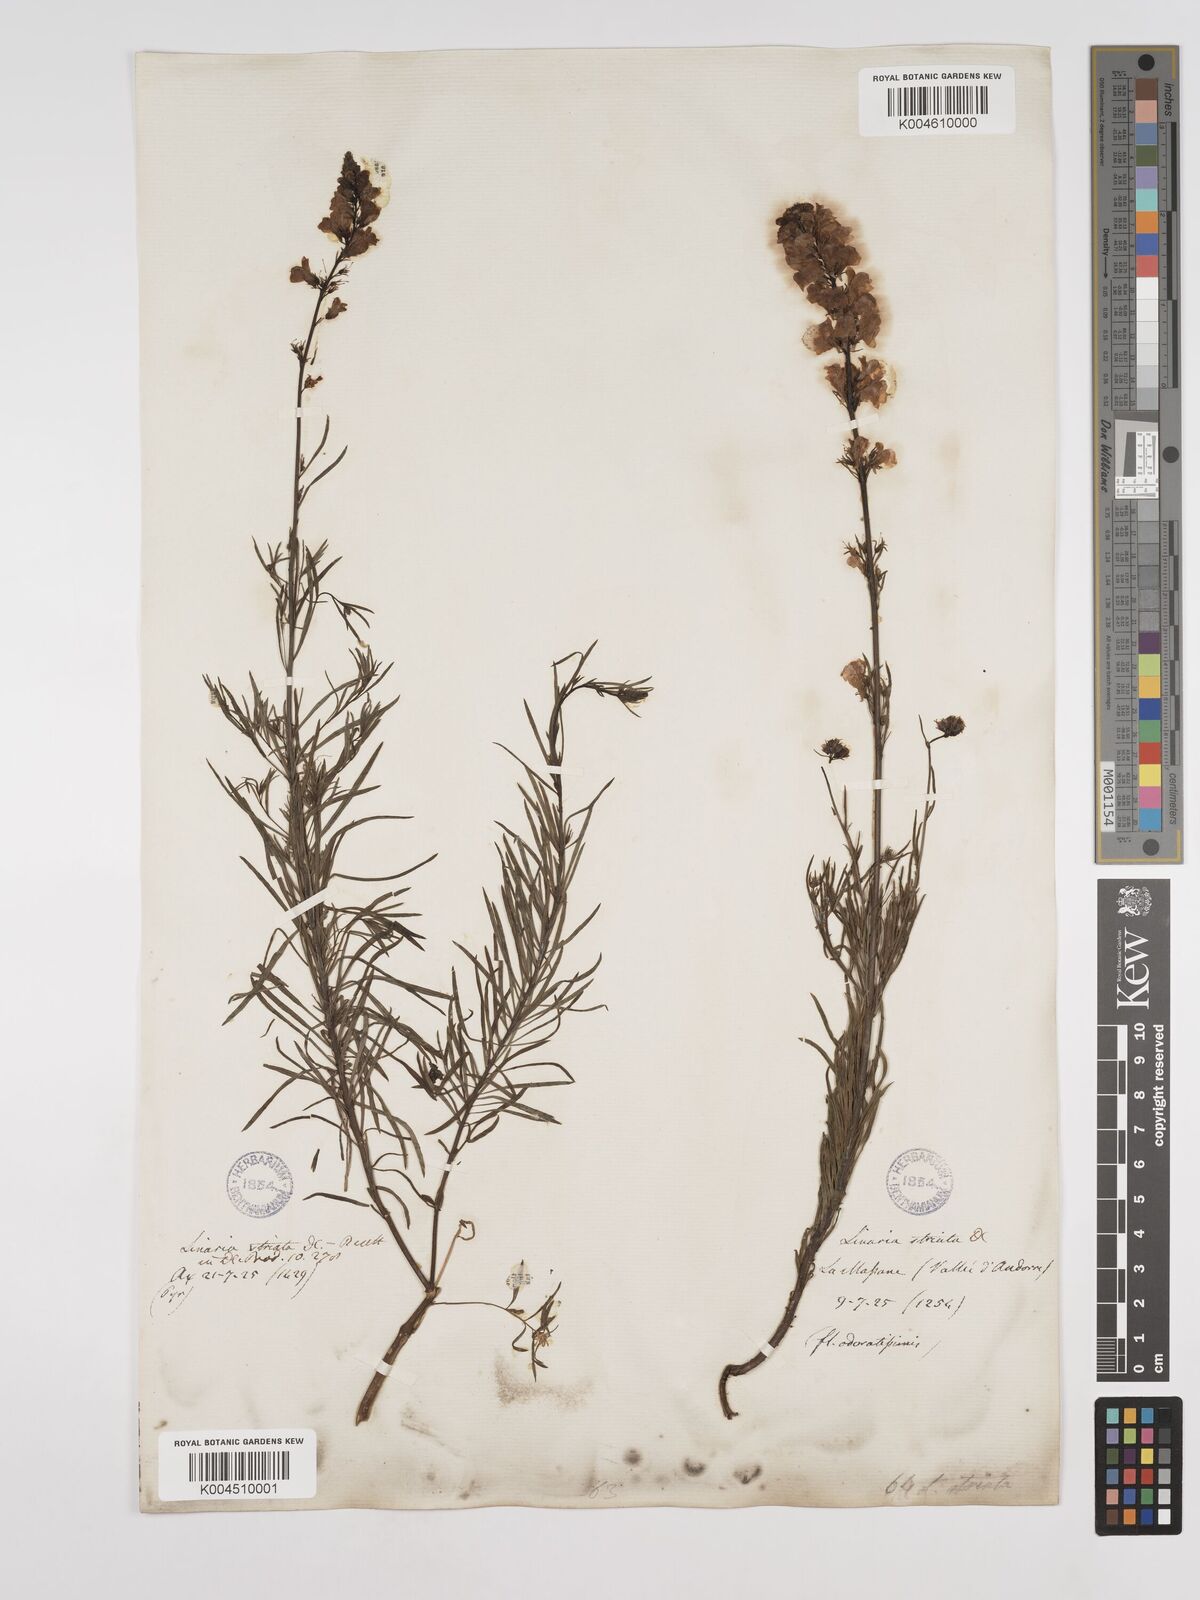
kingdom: Plantae
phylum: Tracheophyta
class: Magnoliopsida
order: Lamiales
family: Plantaginaceae
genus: Linaria
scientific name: Linaria repens
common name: Pale toadflax
